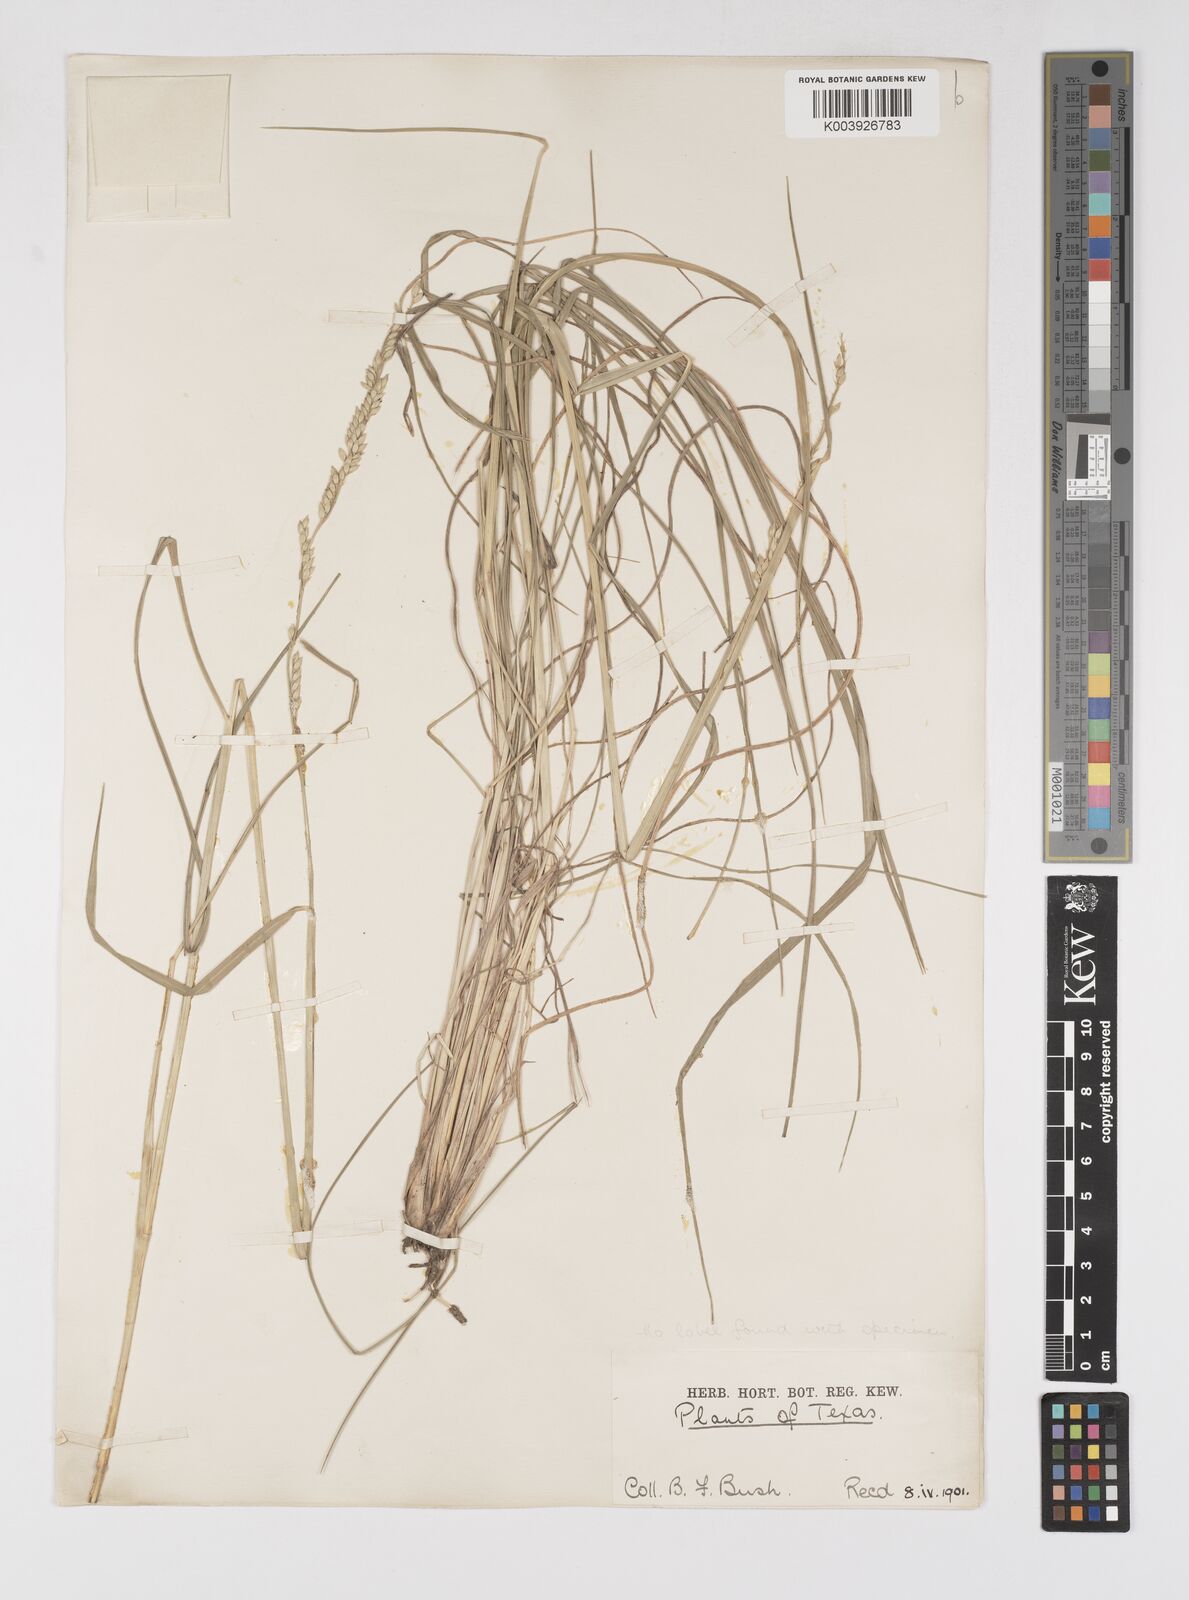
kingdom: Plantae
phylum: Tracheophyta
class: Liliopsida
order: Poales
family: Poaceae
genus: Eriochloa
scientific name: Eriochloa sericea
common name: Texas cup grass
